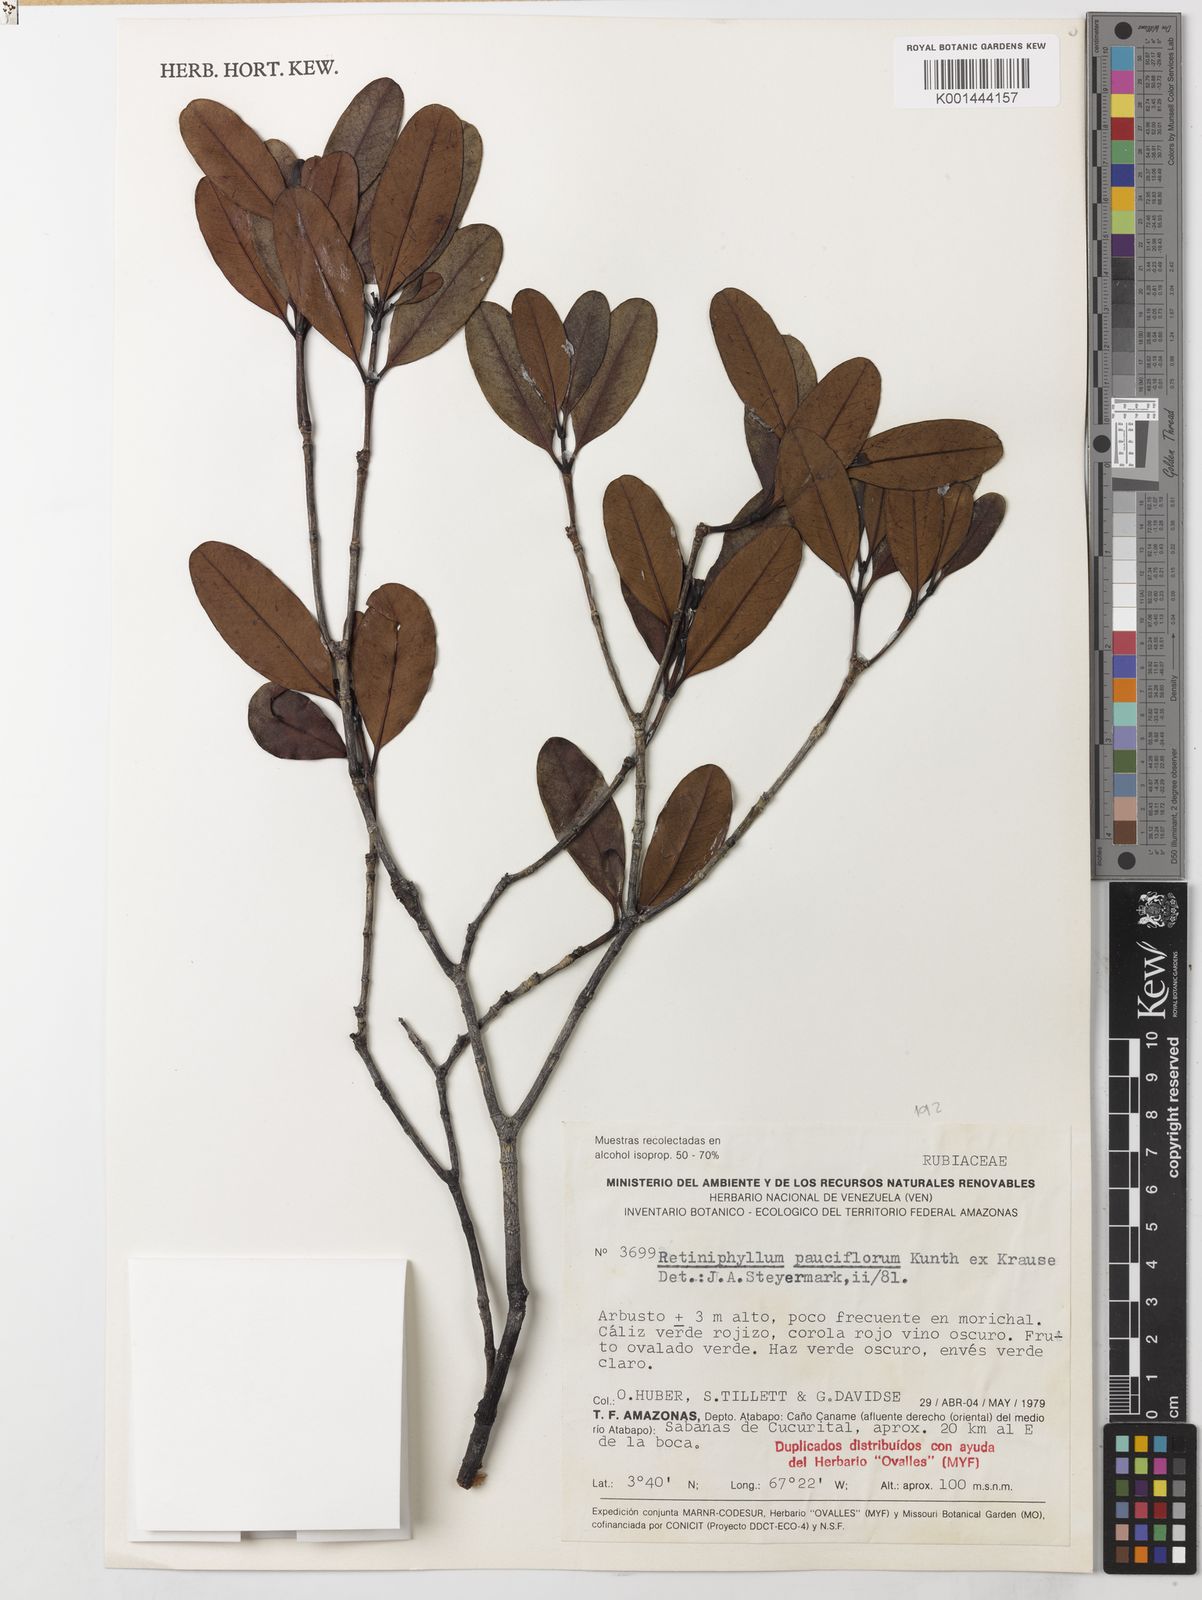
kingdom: Plantae
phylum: Tracheophyta
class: Magnoliopsida
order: Gentianales
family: Rubiaceae
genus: Retiniphyllum
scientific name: Retiniphyllum pauciflorum
